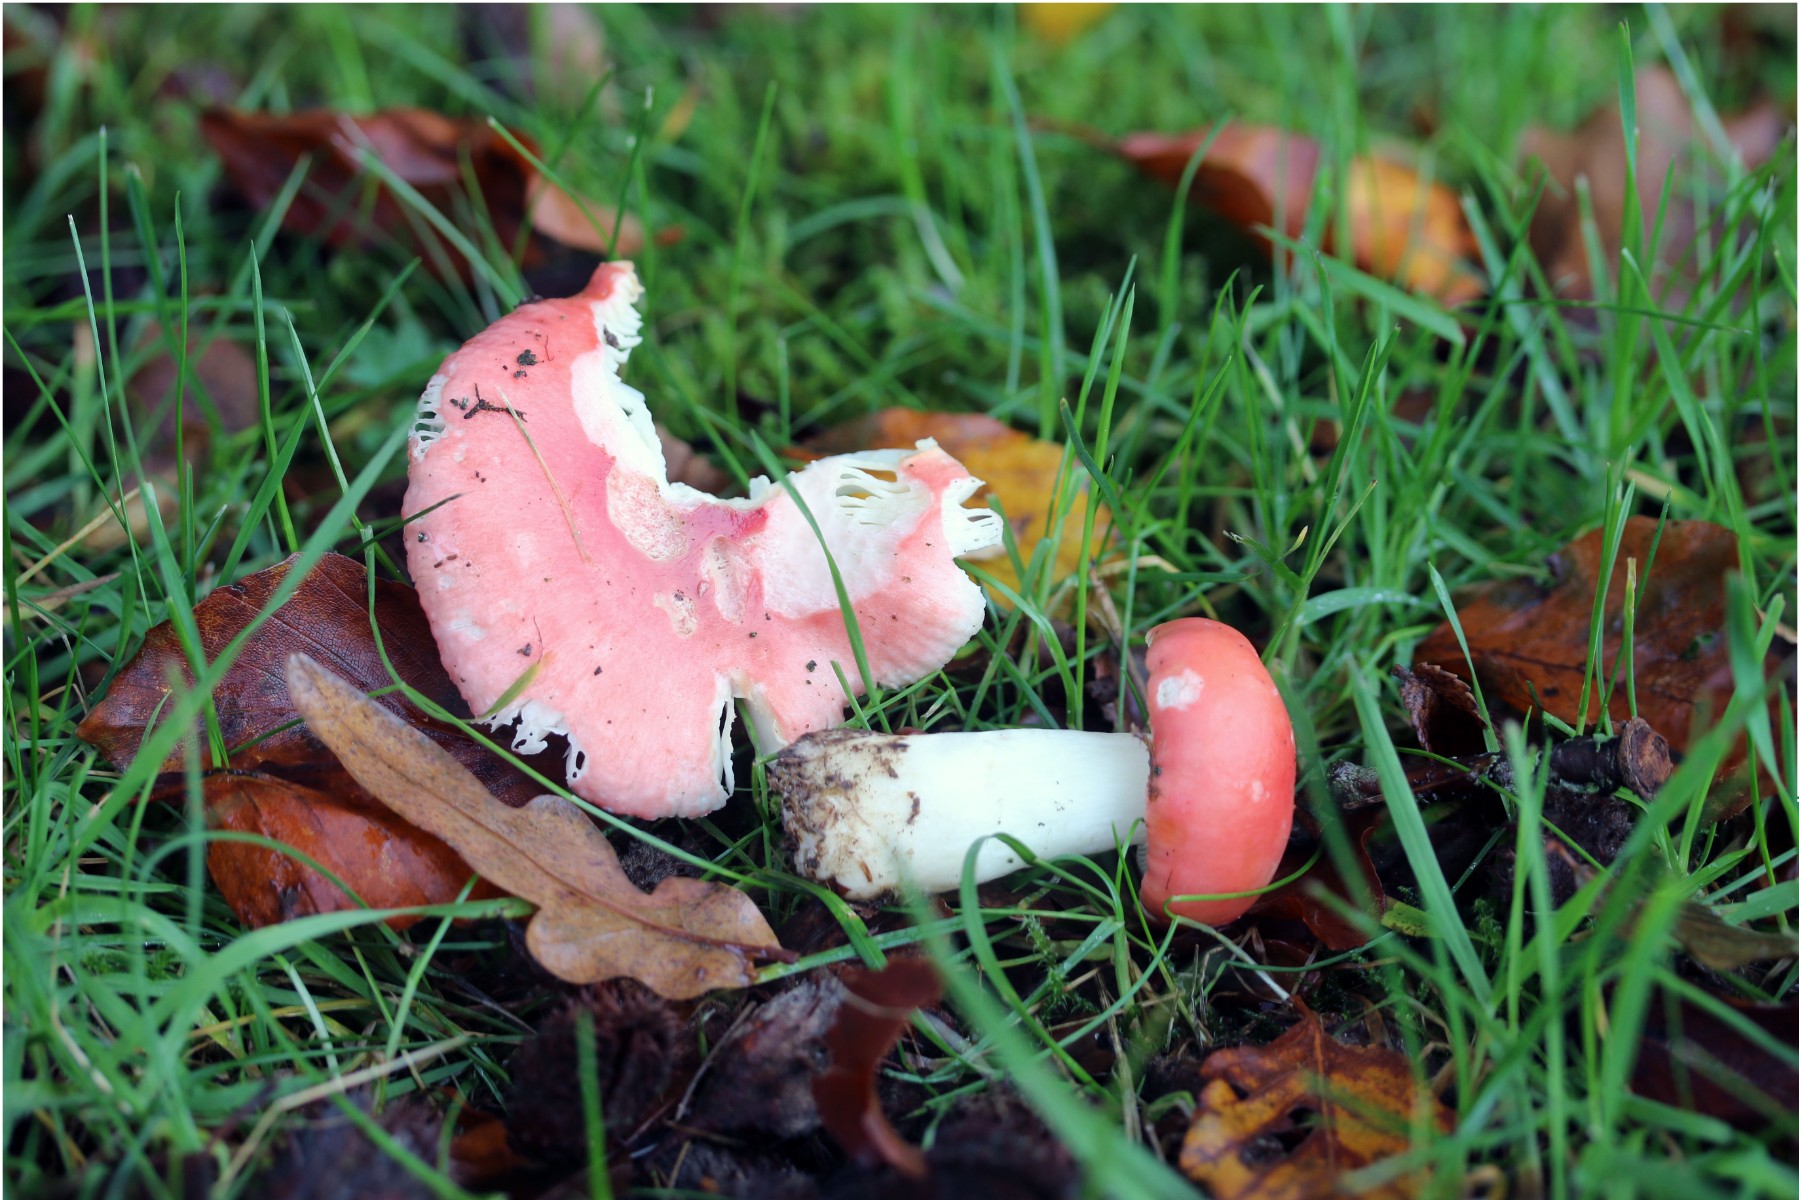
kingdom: Fungi
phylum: Basidiomycota
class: Agaricomycetes
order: Russulales
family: Russulaceae
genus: Russula
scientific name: Russula nobilis
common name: lille gift-skørhat
